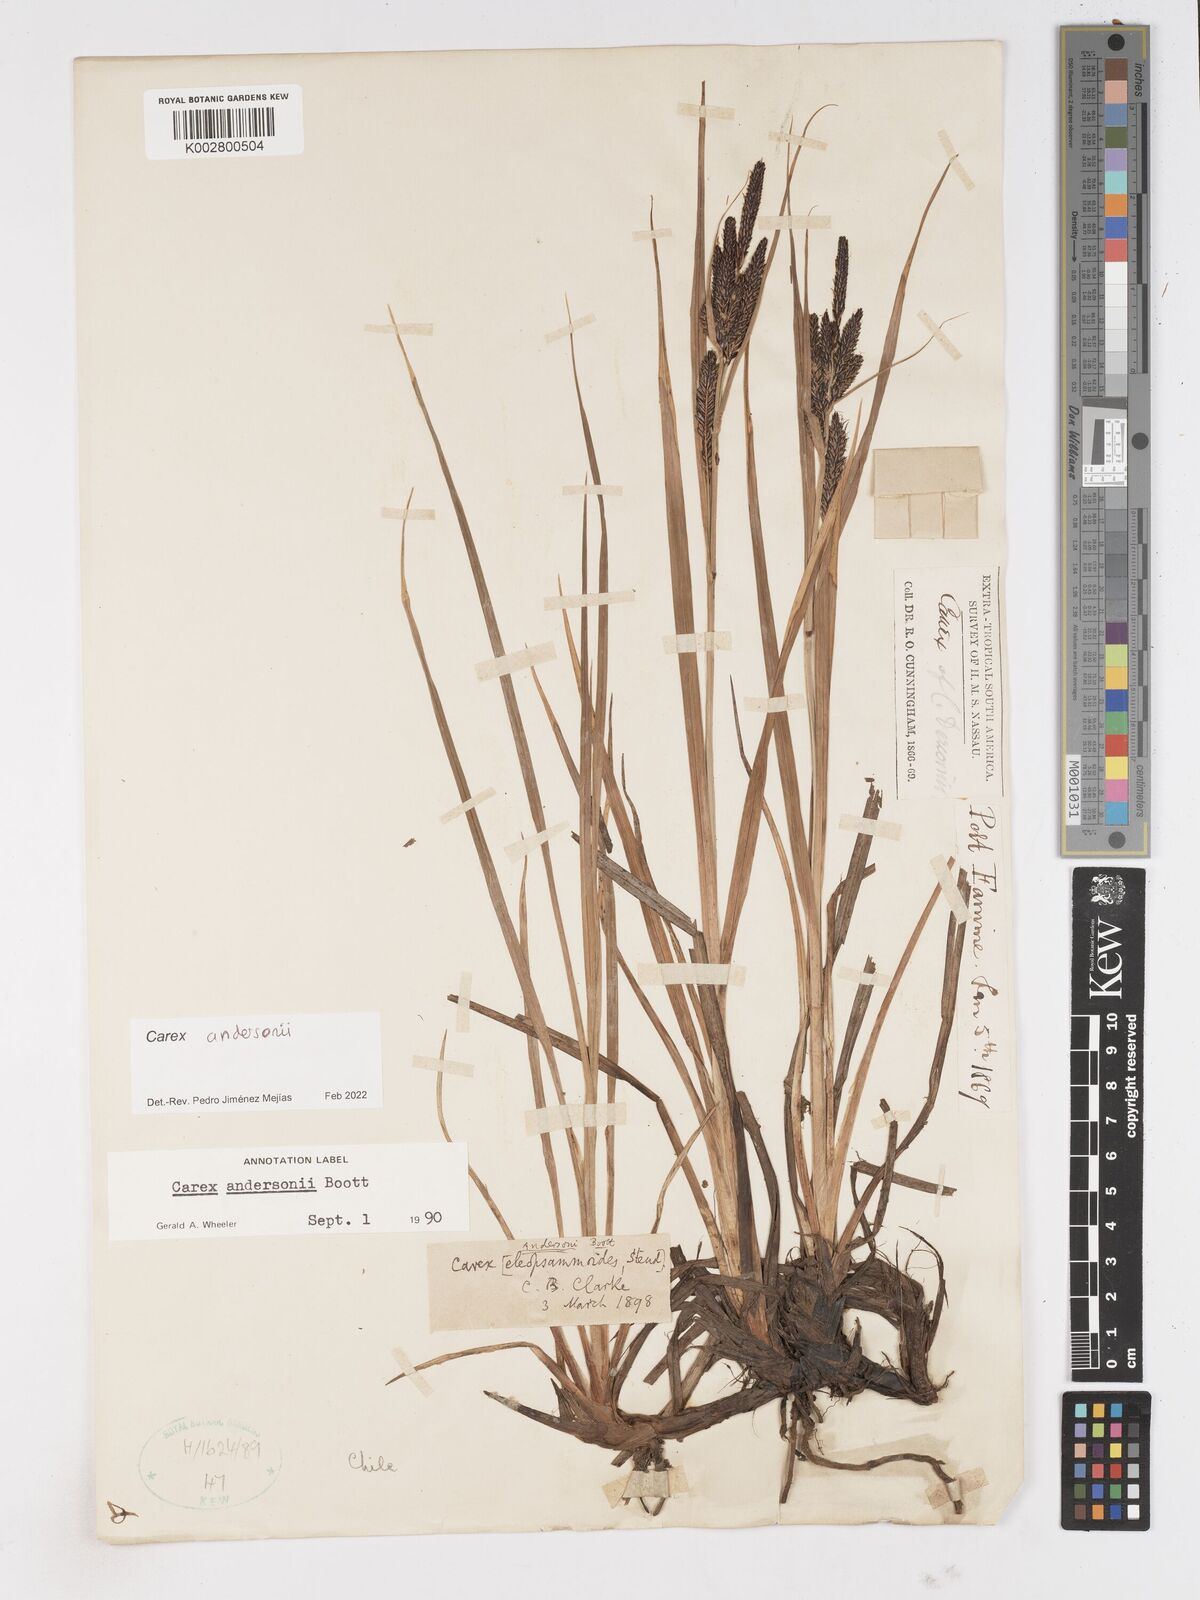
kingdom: Plantae
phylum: Tracheophyta
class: Liliopsida
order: Poales
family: Cyperaceae
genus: Carex
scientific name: Carex andersonii
